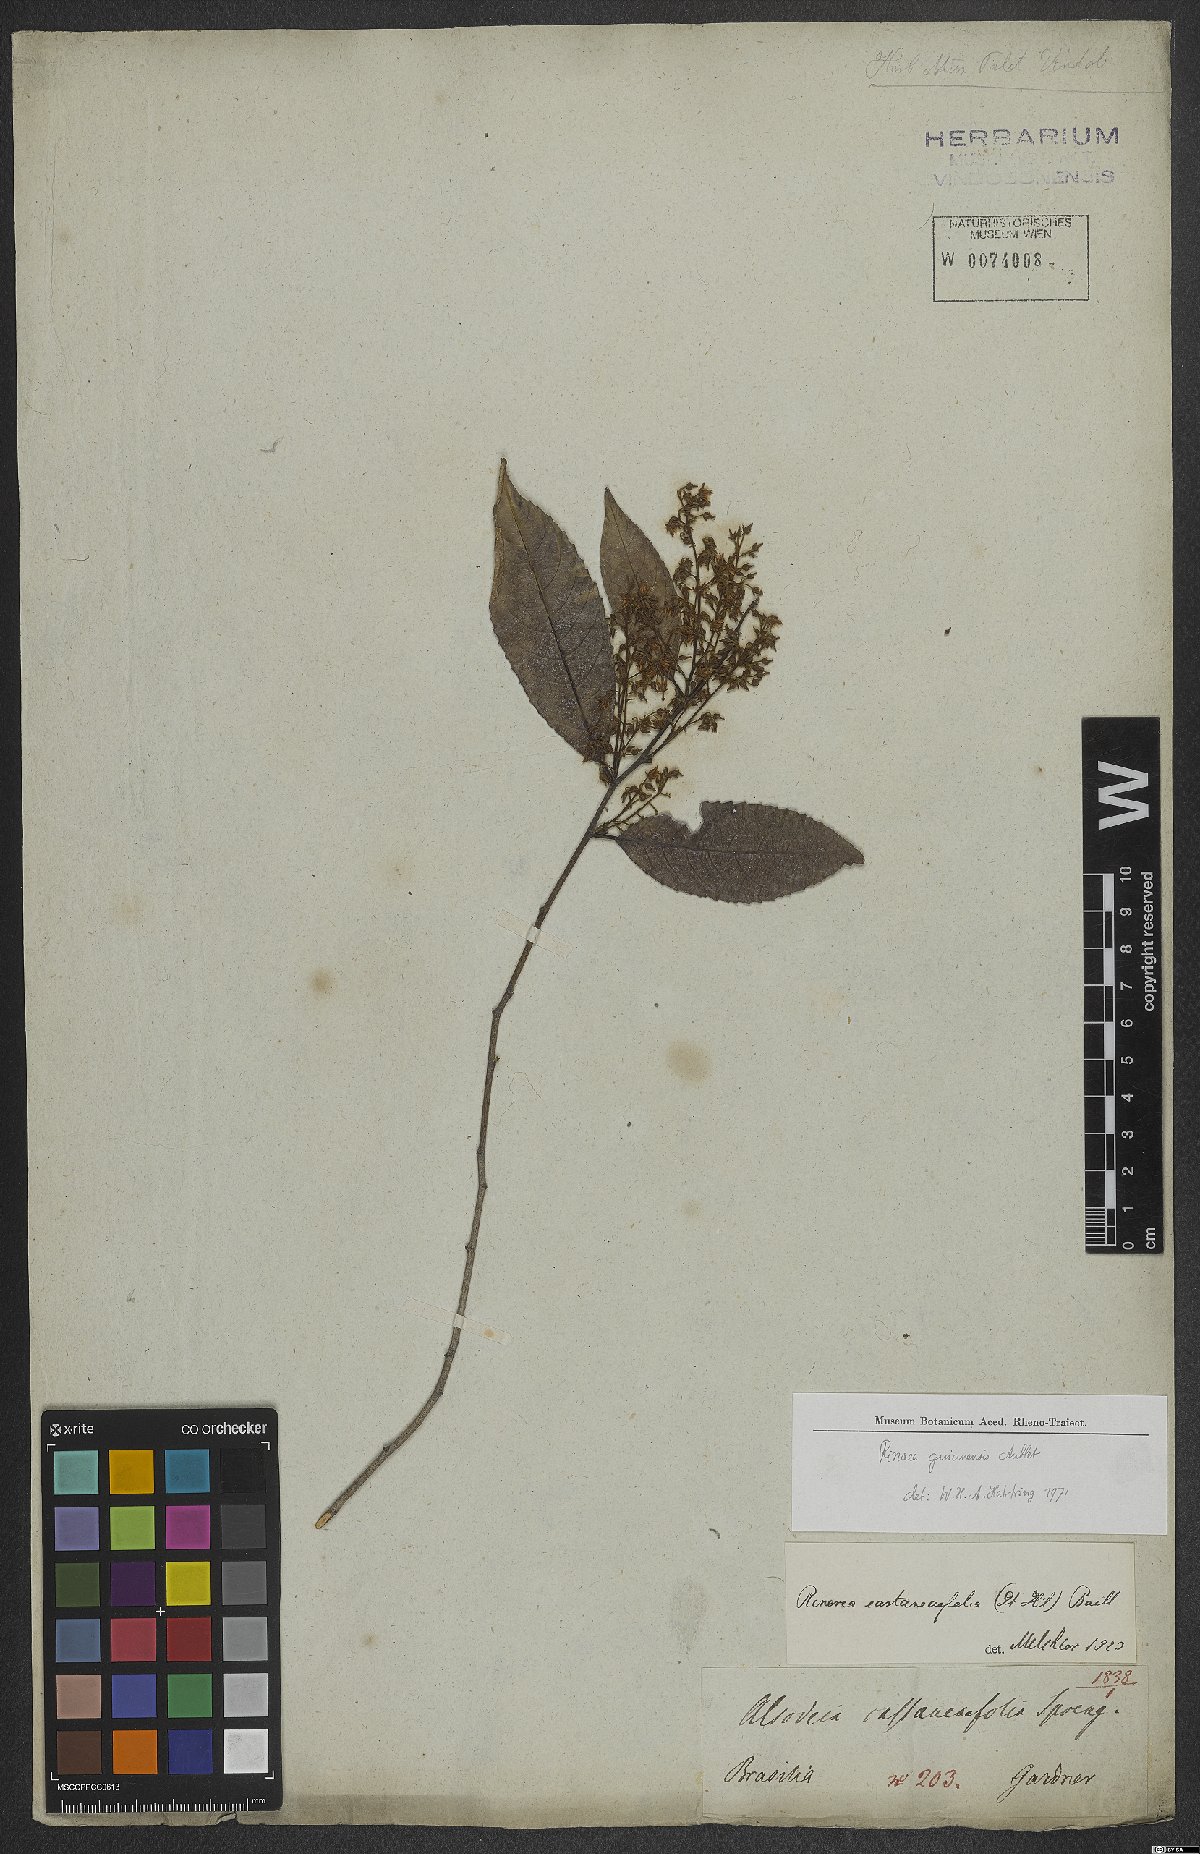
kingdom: Plantae
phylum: Tracheophyta
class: Magnoliopsida
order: Malpighiales
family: Violaceae
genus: Rinorea
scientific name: Rinorea guianensis
